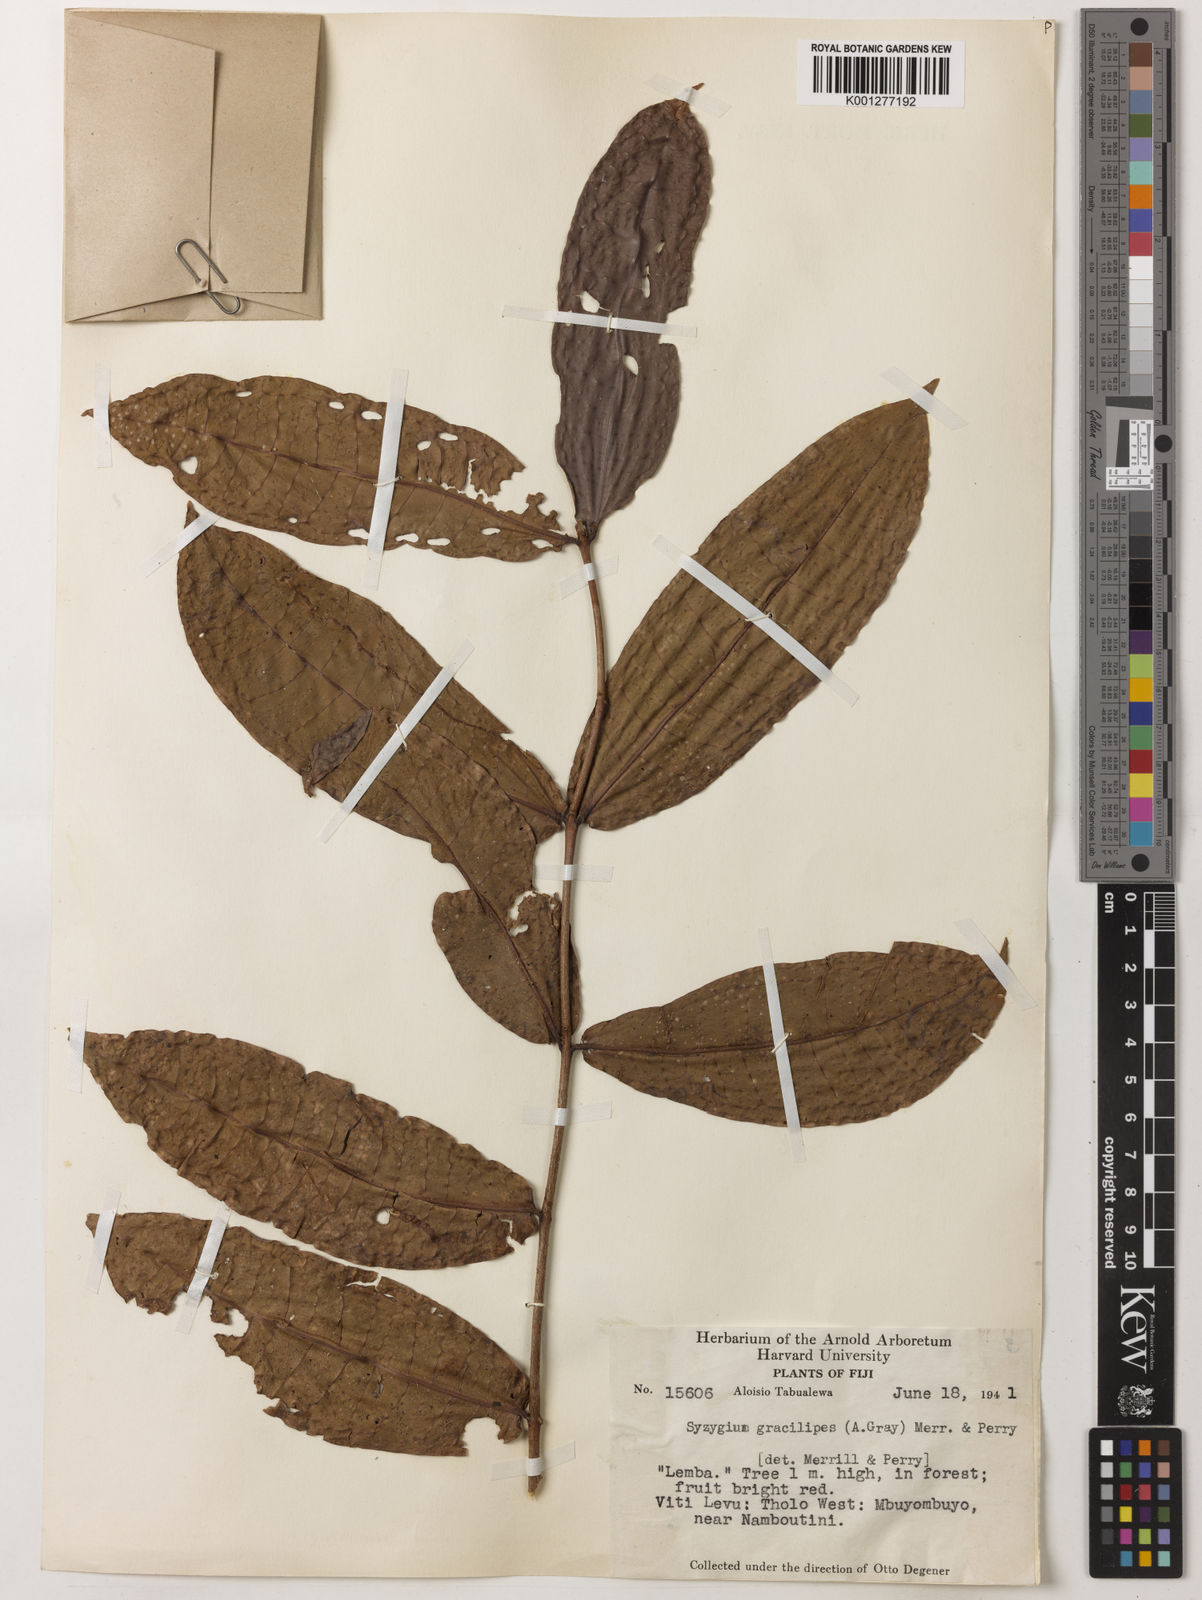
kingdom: Plantae
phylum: Tracheophyta
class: Magnoliopsida
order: Myrtales
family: Myrtaceae
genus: Syzygium
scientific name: Syzygium gracilipes
